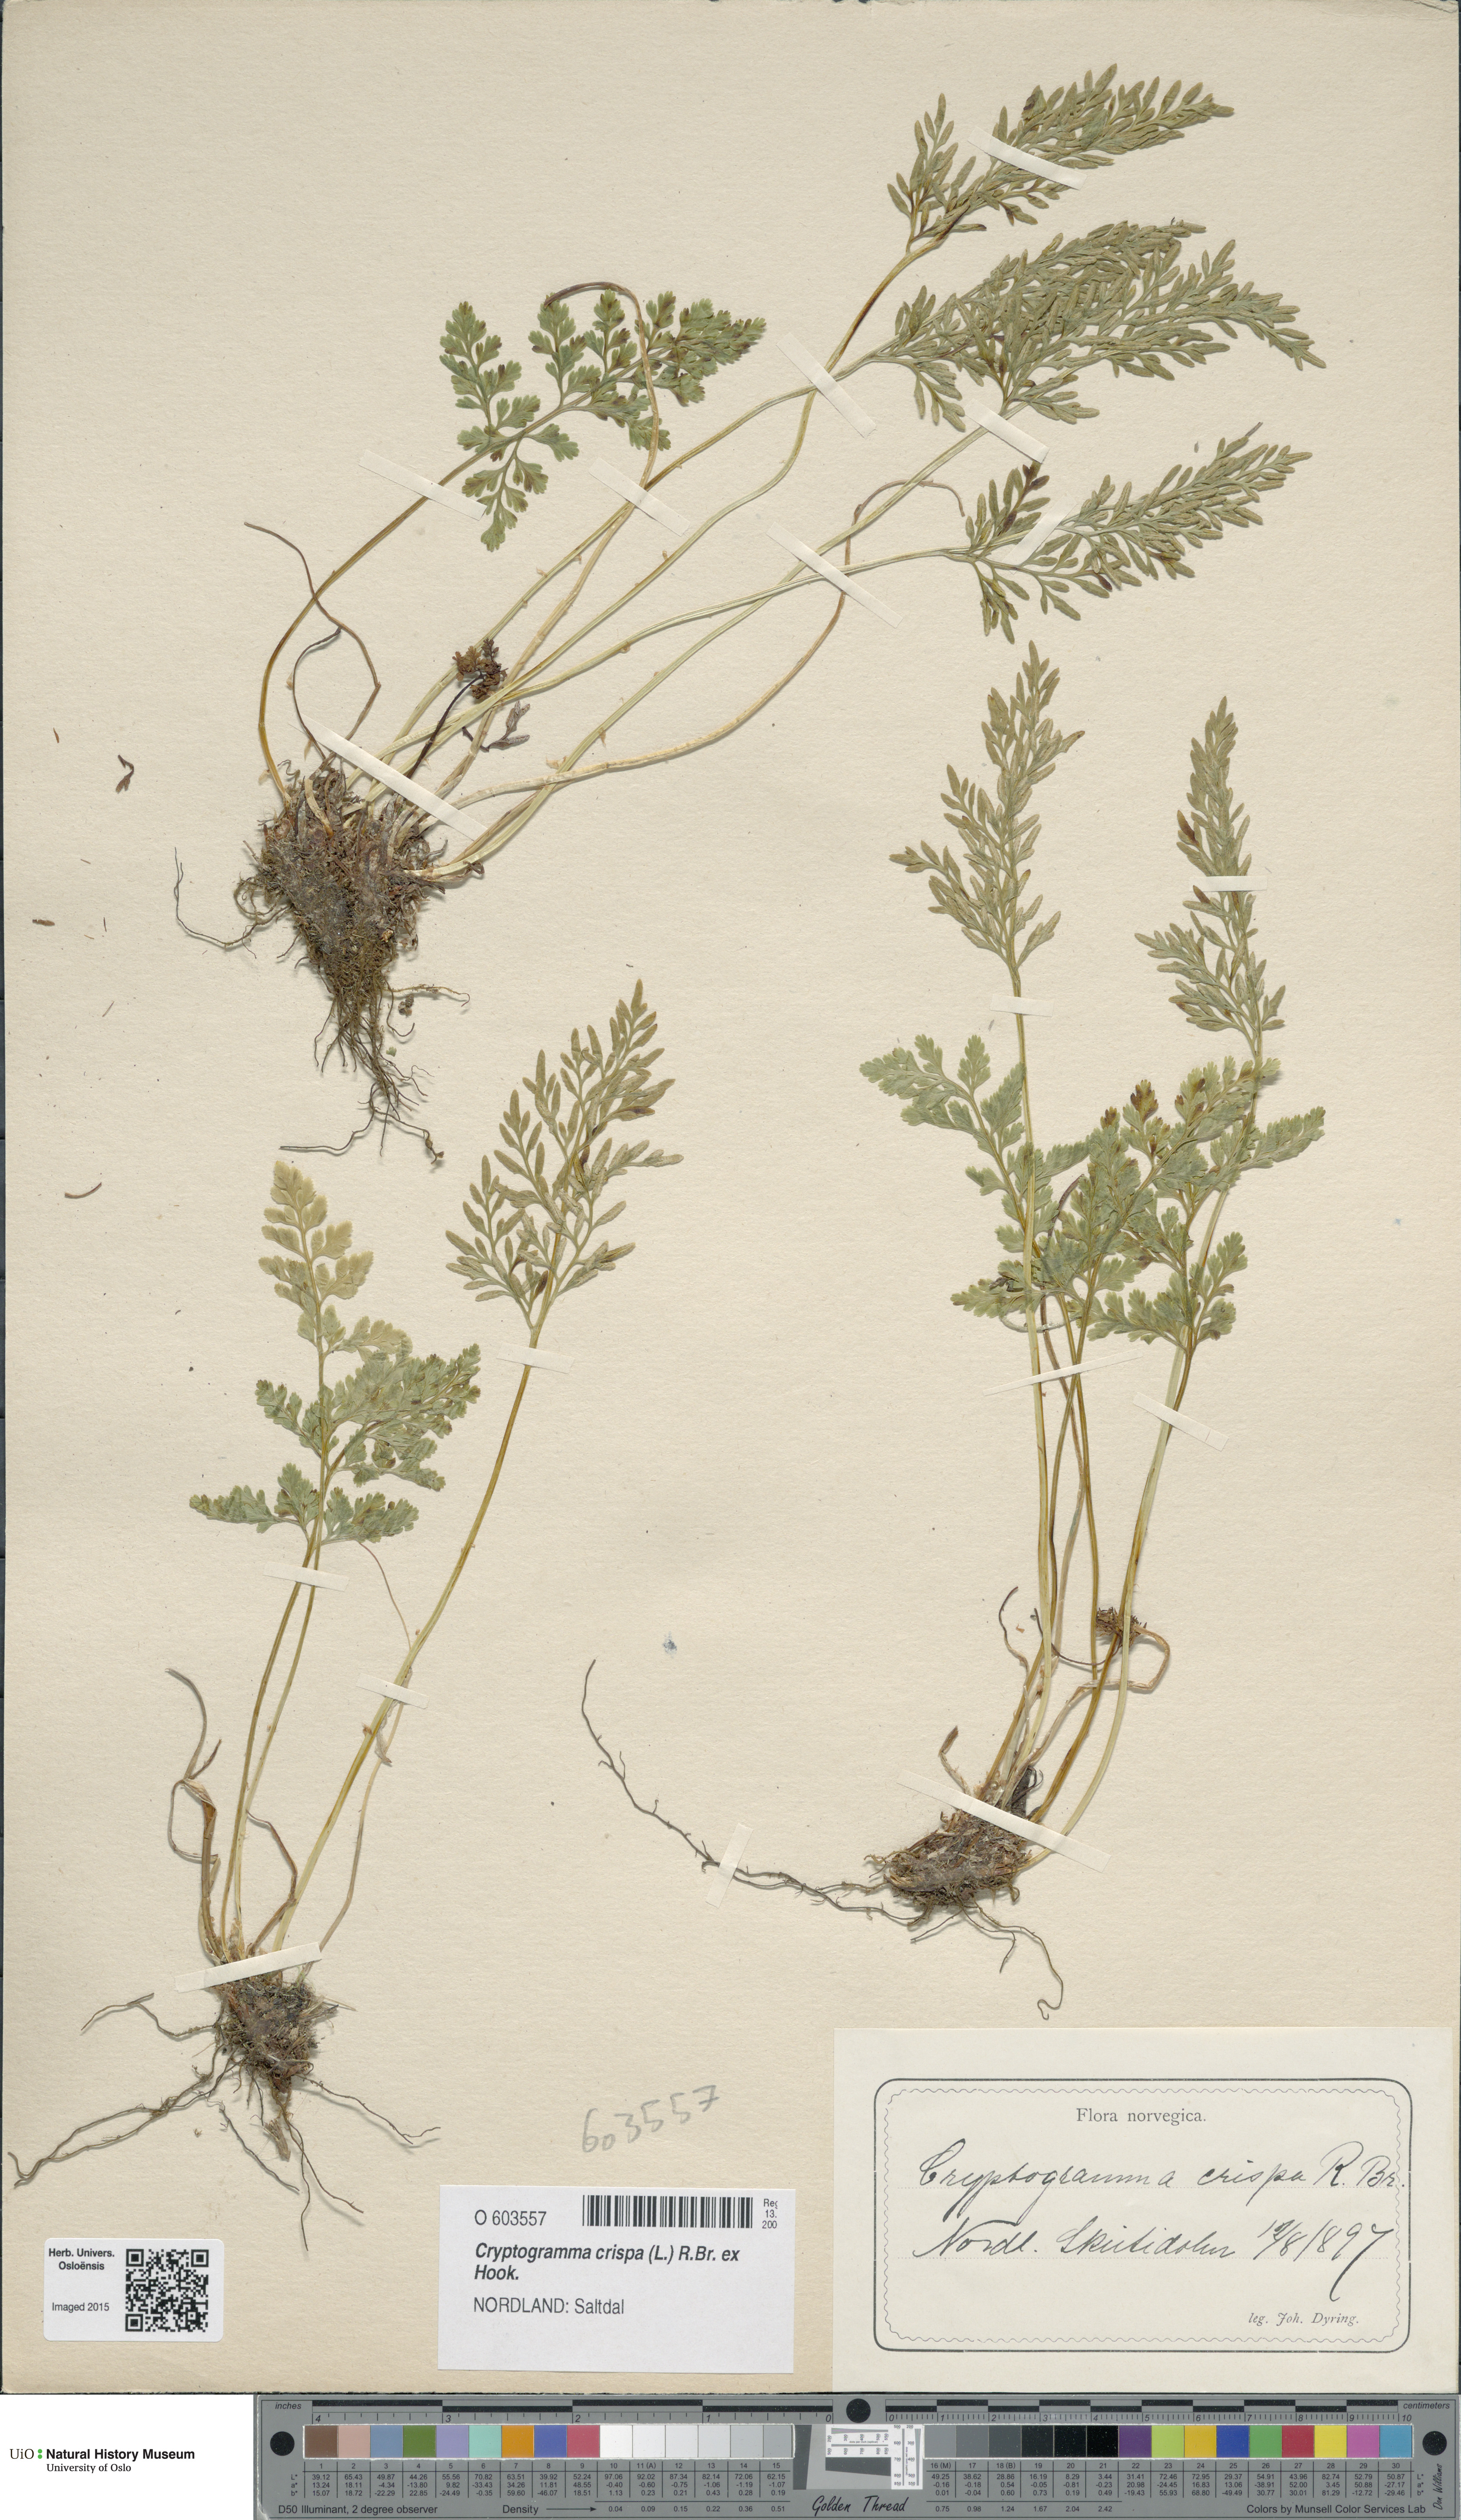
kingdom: Plantae
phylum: Tracheophyta
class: Polypodiopsida
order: Polypodiales
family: Pteridaceae
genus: Cryptogramma
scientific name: Cryptogramma crispa
